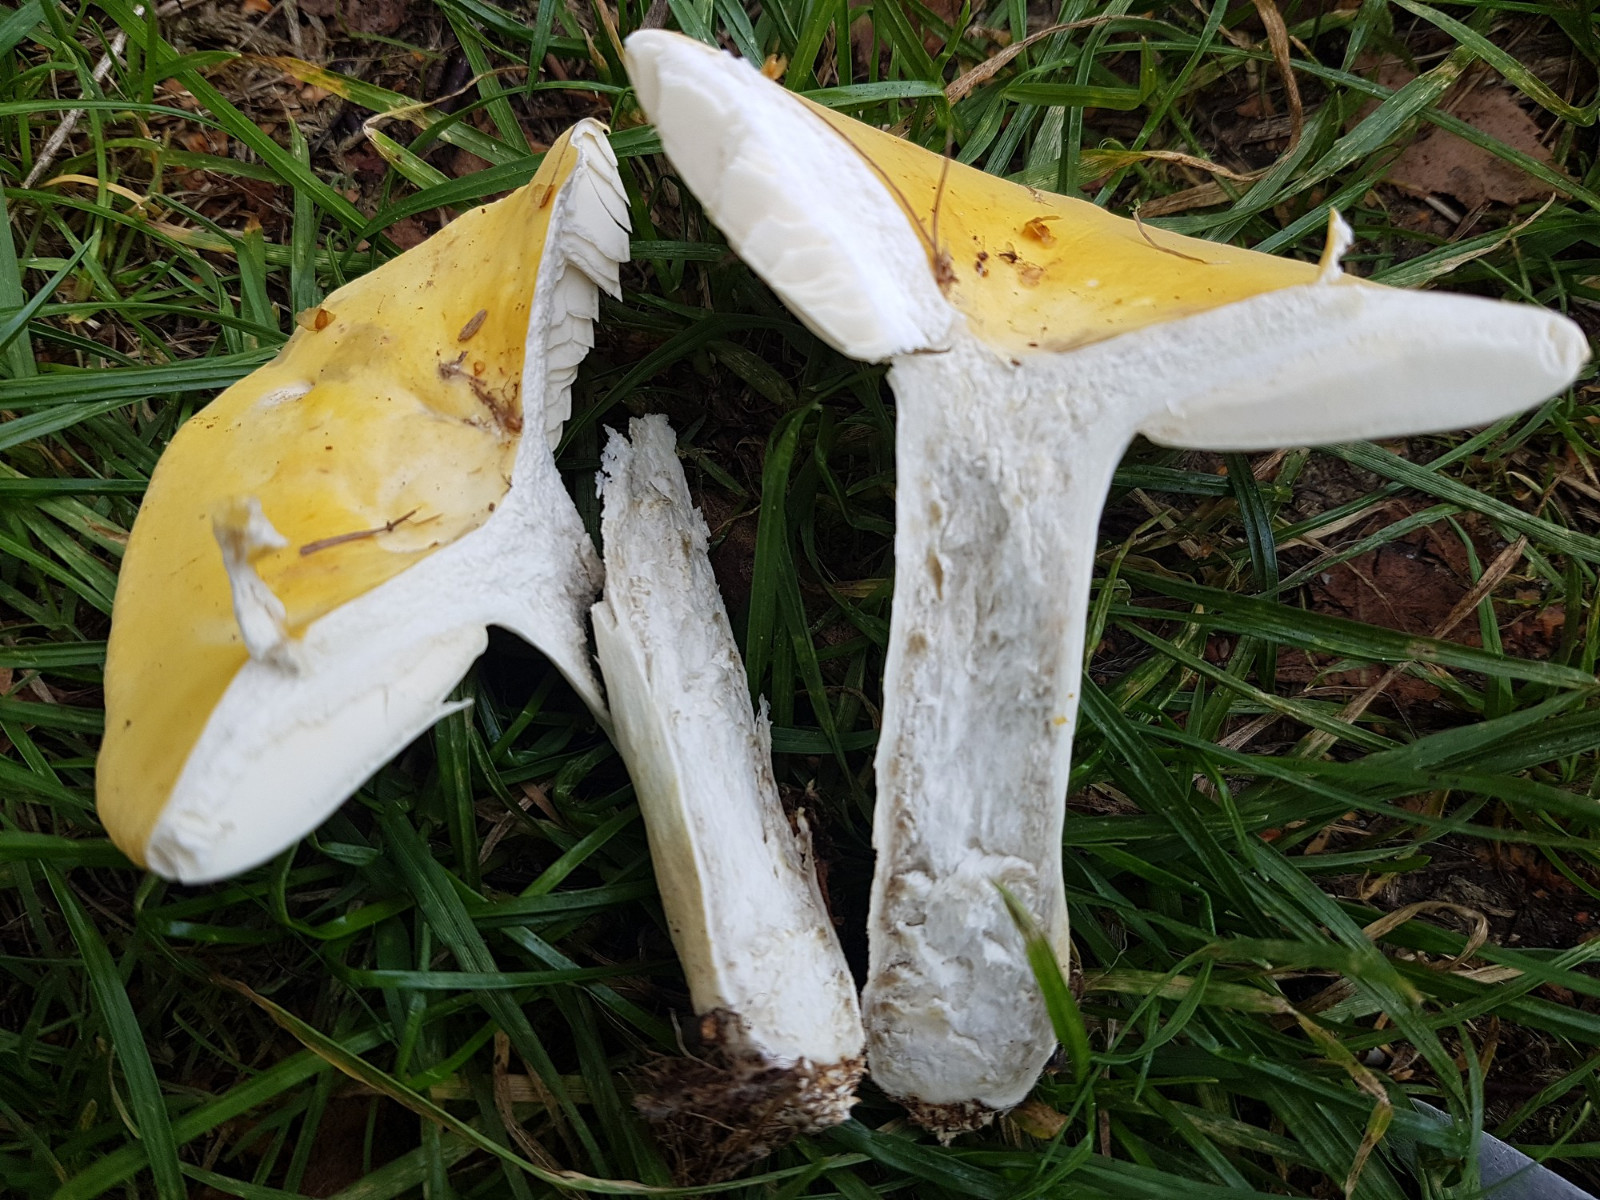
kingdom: Fungi
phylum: Basidiomycota
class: Agaricomycetes
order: Russulales
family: Russulaceae
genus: Russula
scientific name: Russula claroflava
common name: birke-skørhat
